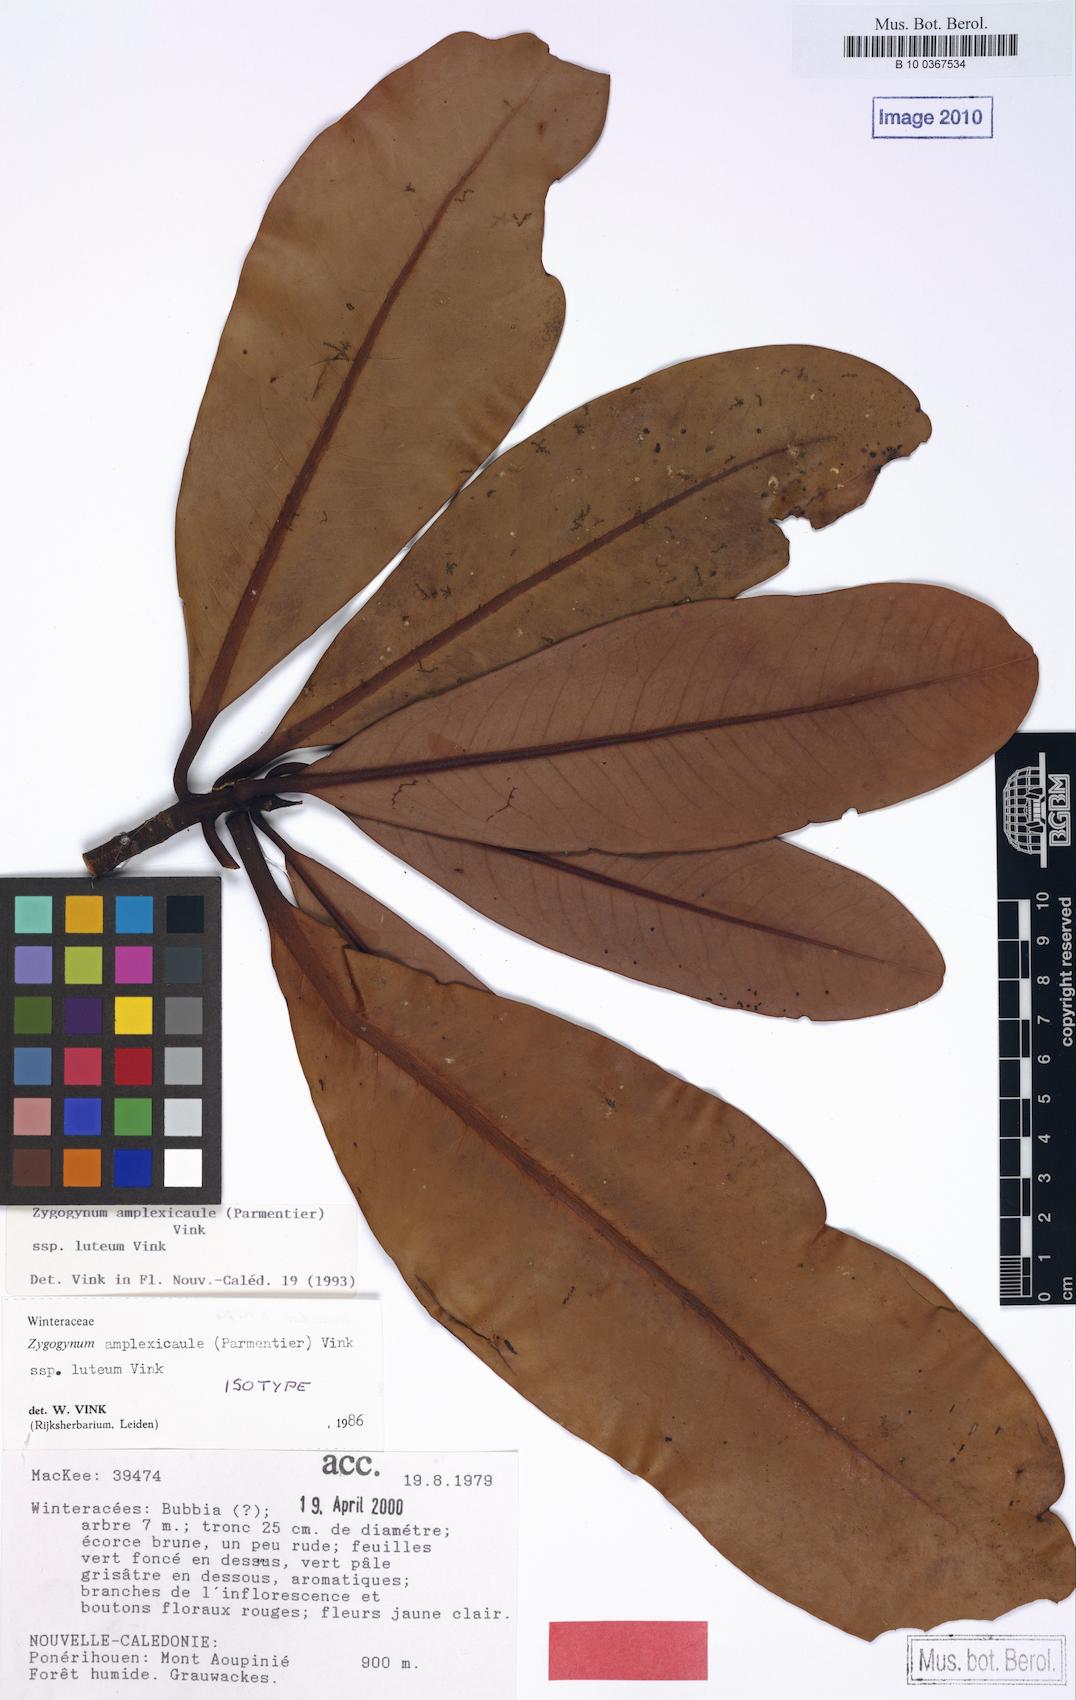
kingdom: Plantae
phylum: Tracheophyta
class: Magnoliopsida
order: Canellales
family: Winteraceae
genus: Zygogynum
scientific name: Zygogynum amplexicaule
